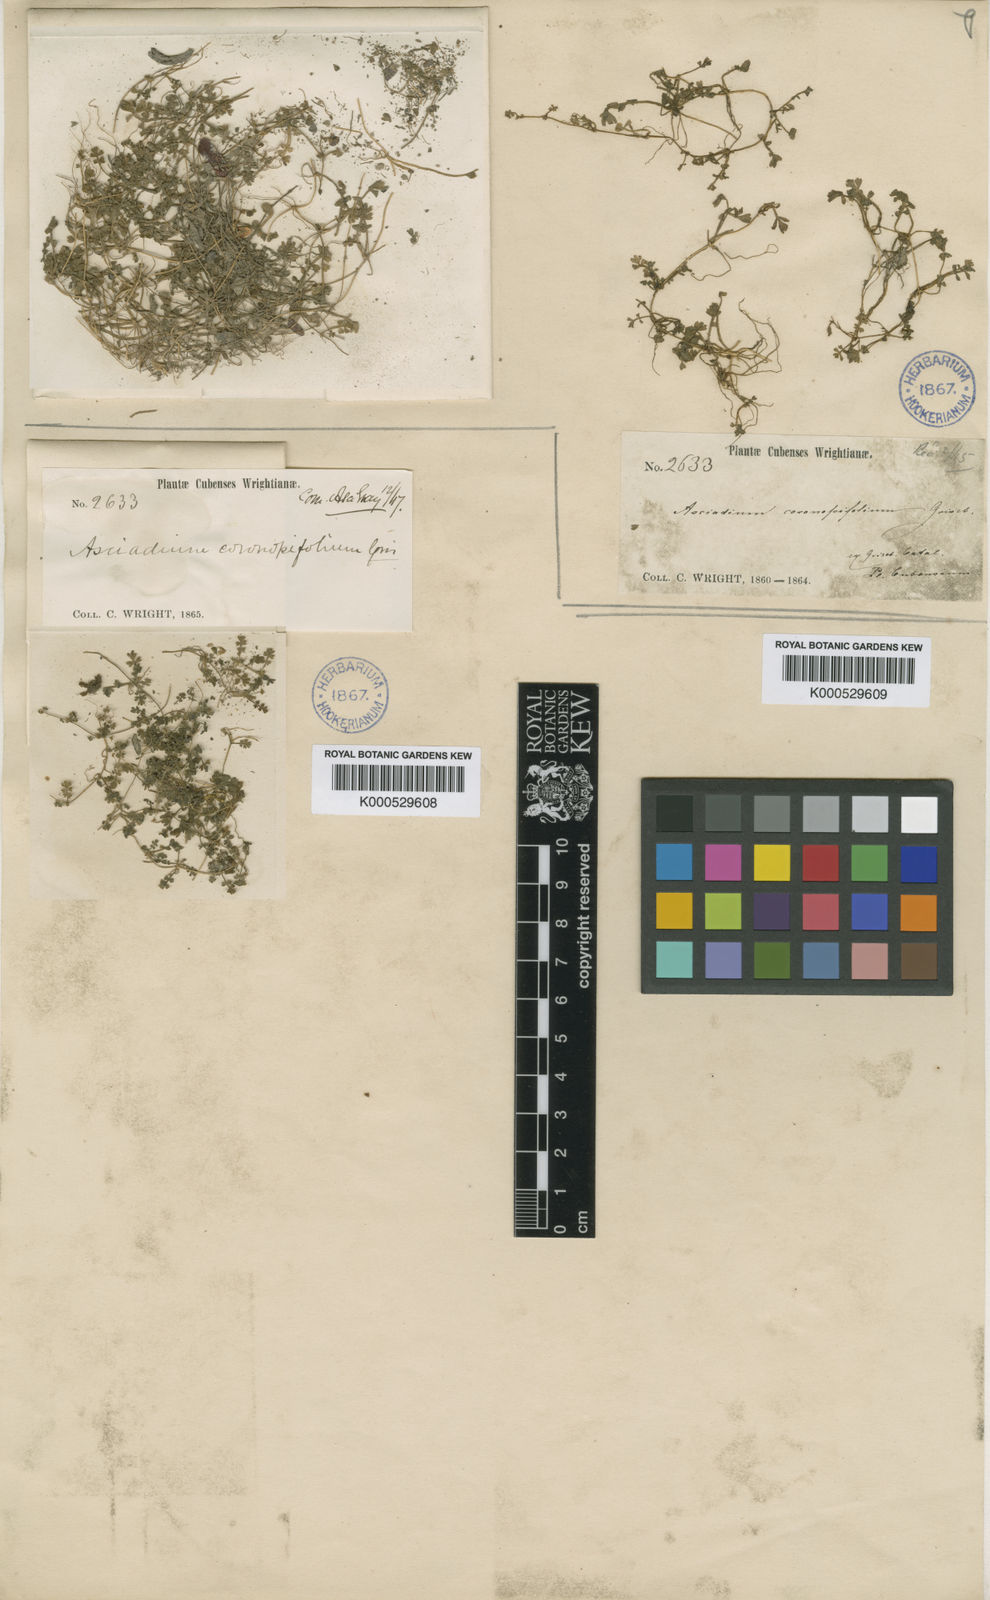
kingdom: Plantae
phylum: Tracheophyta
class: Magnoliopsida
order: Apiales
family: Apiaceae
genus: Asciadium
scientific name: Asciadium coronopifolium
